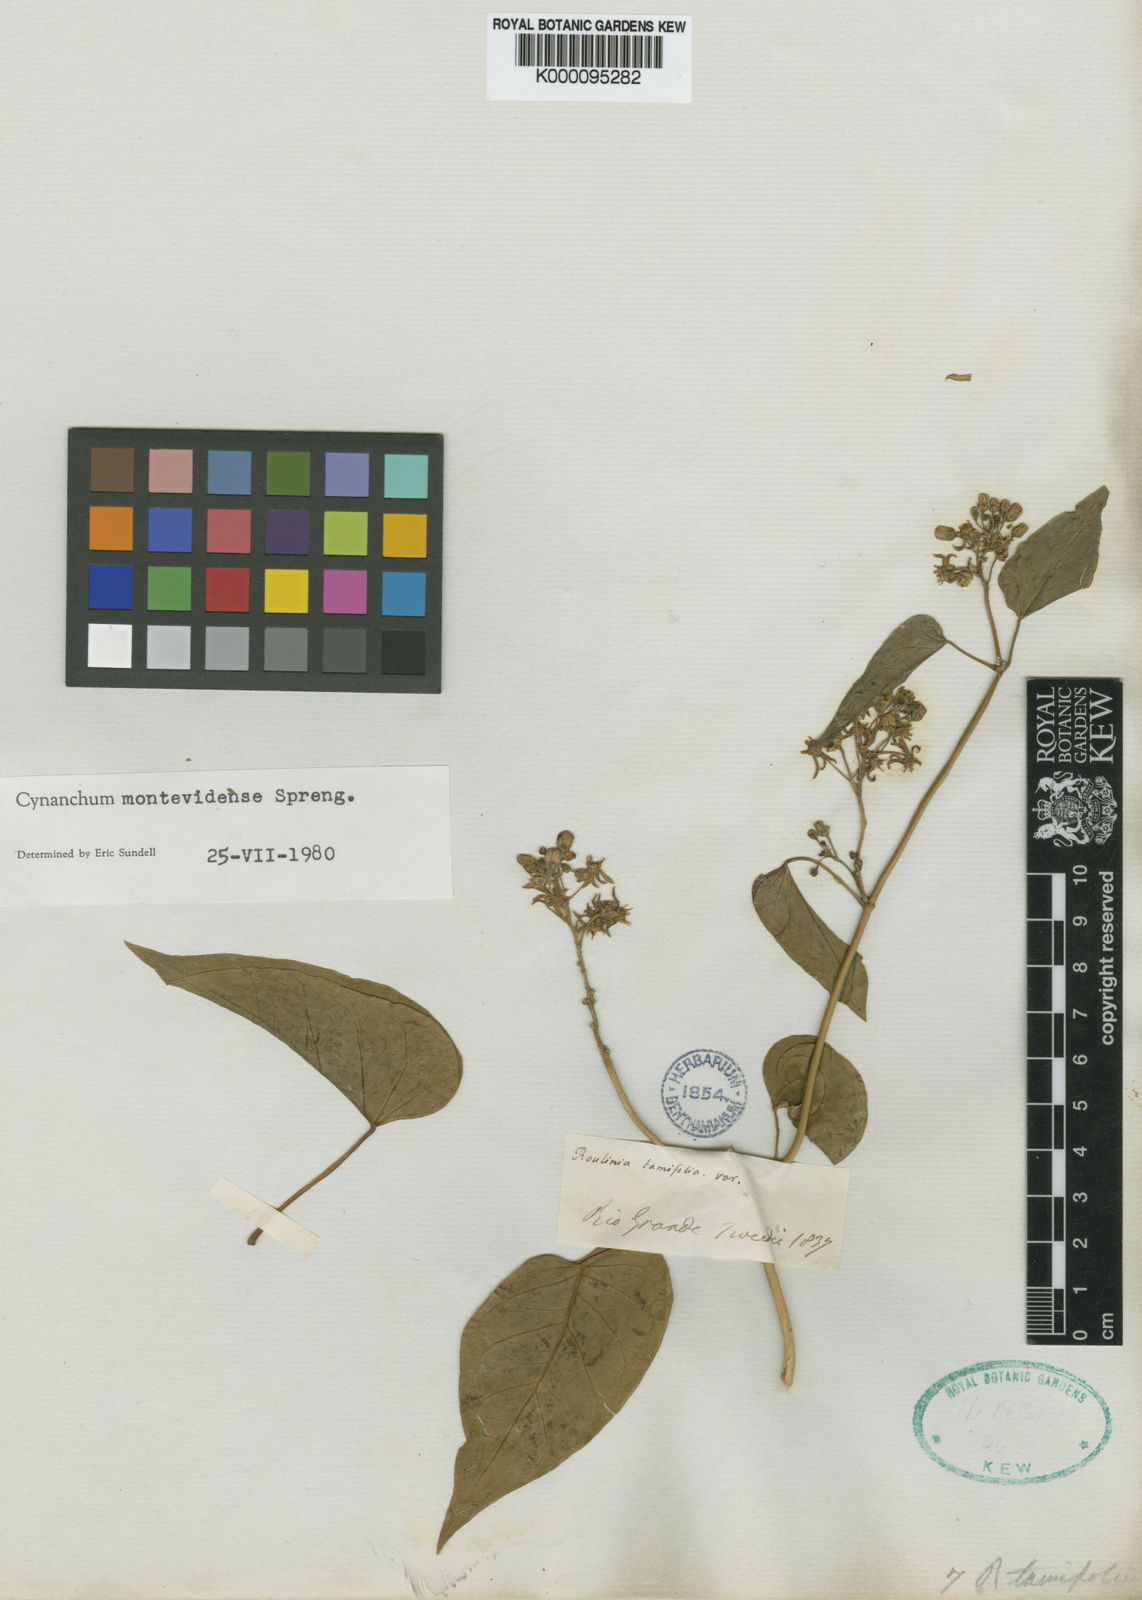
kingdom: Plantae
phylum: Tracheophyta
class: Magnoliopsida
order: Gentianales
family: Apocynaceae
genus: Cynanchum
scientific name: Cynanchum montevidense
